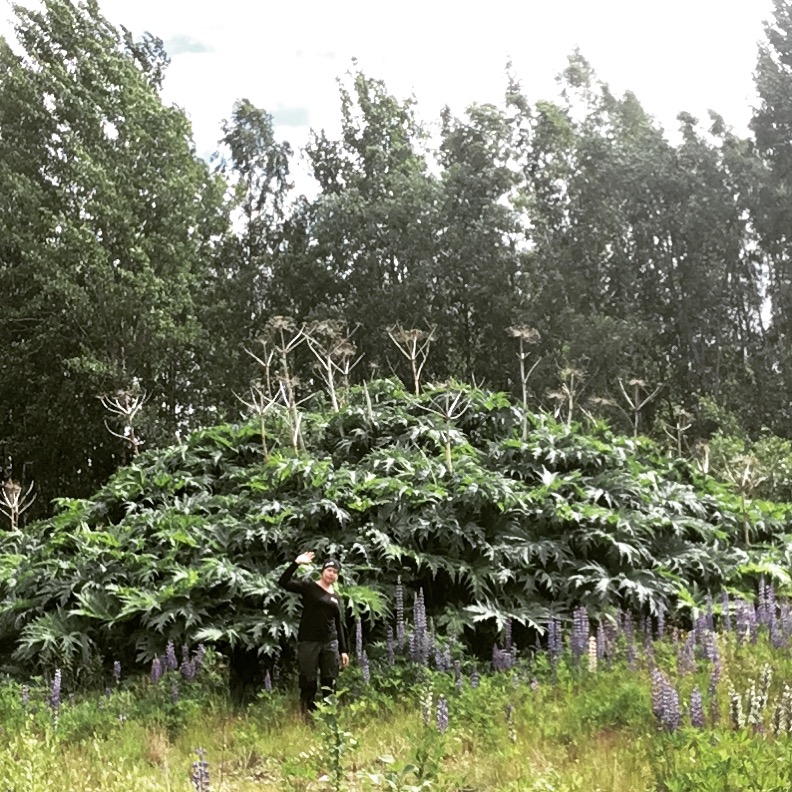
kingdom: Plantae
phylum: Tracheophyta
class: Magnoliopsida
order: Apiales
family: Apiaceae
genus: Heracleum
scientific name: Heracleum
